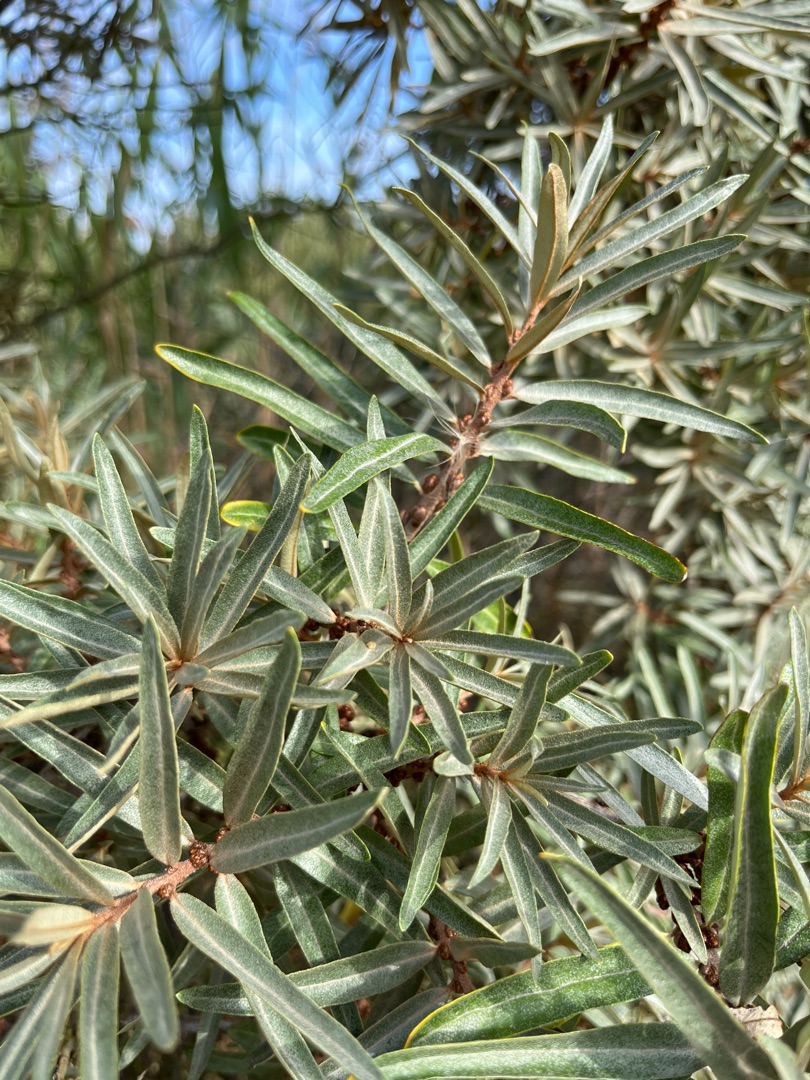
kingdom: Plantae
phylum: Tracheophyta
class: Magnoliopsida
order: Rosales
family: Elaeagnaceae
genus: Hippophae
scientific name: Hippophae rhamnoides
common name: Havtorn
